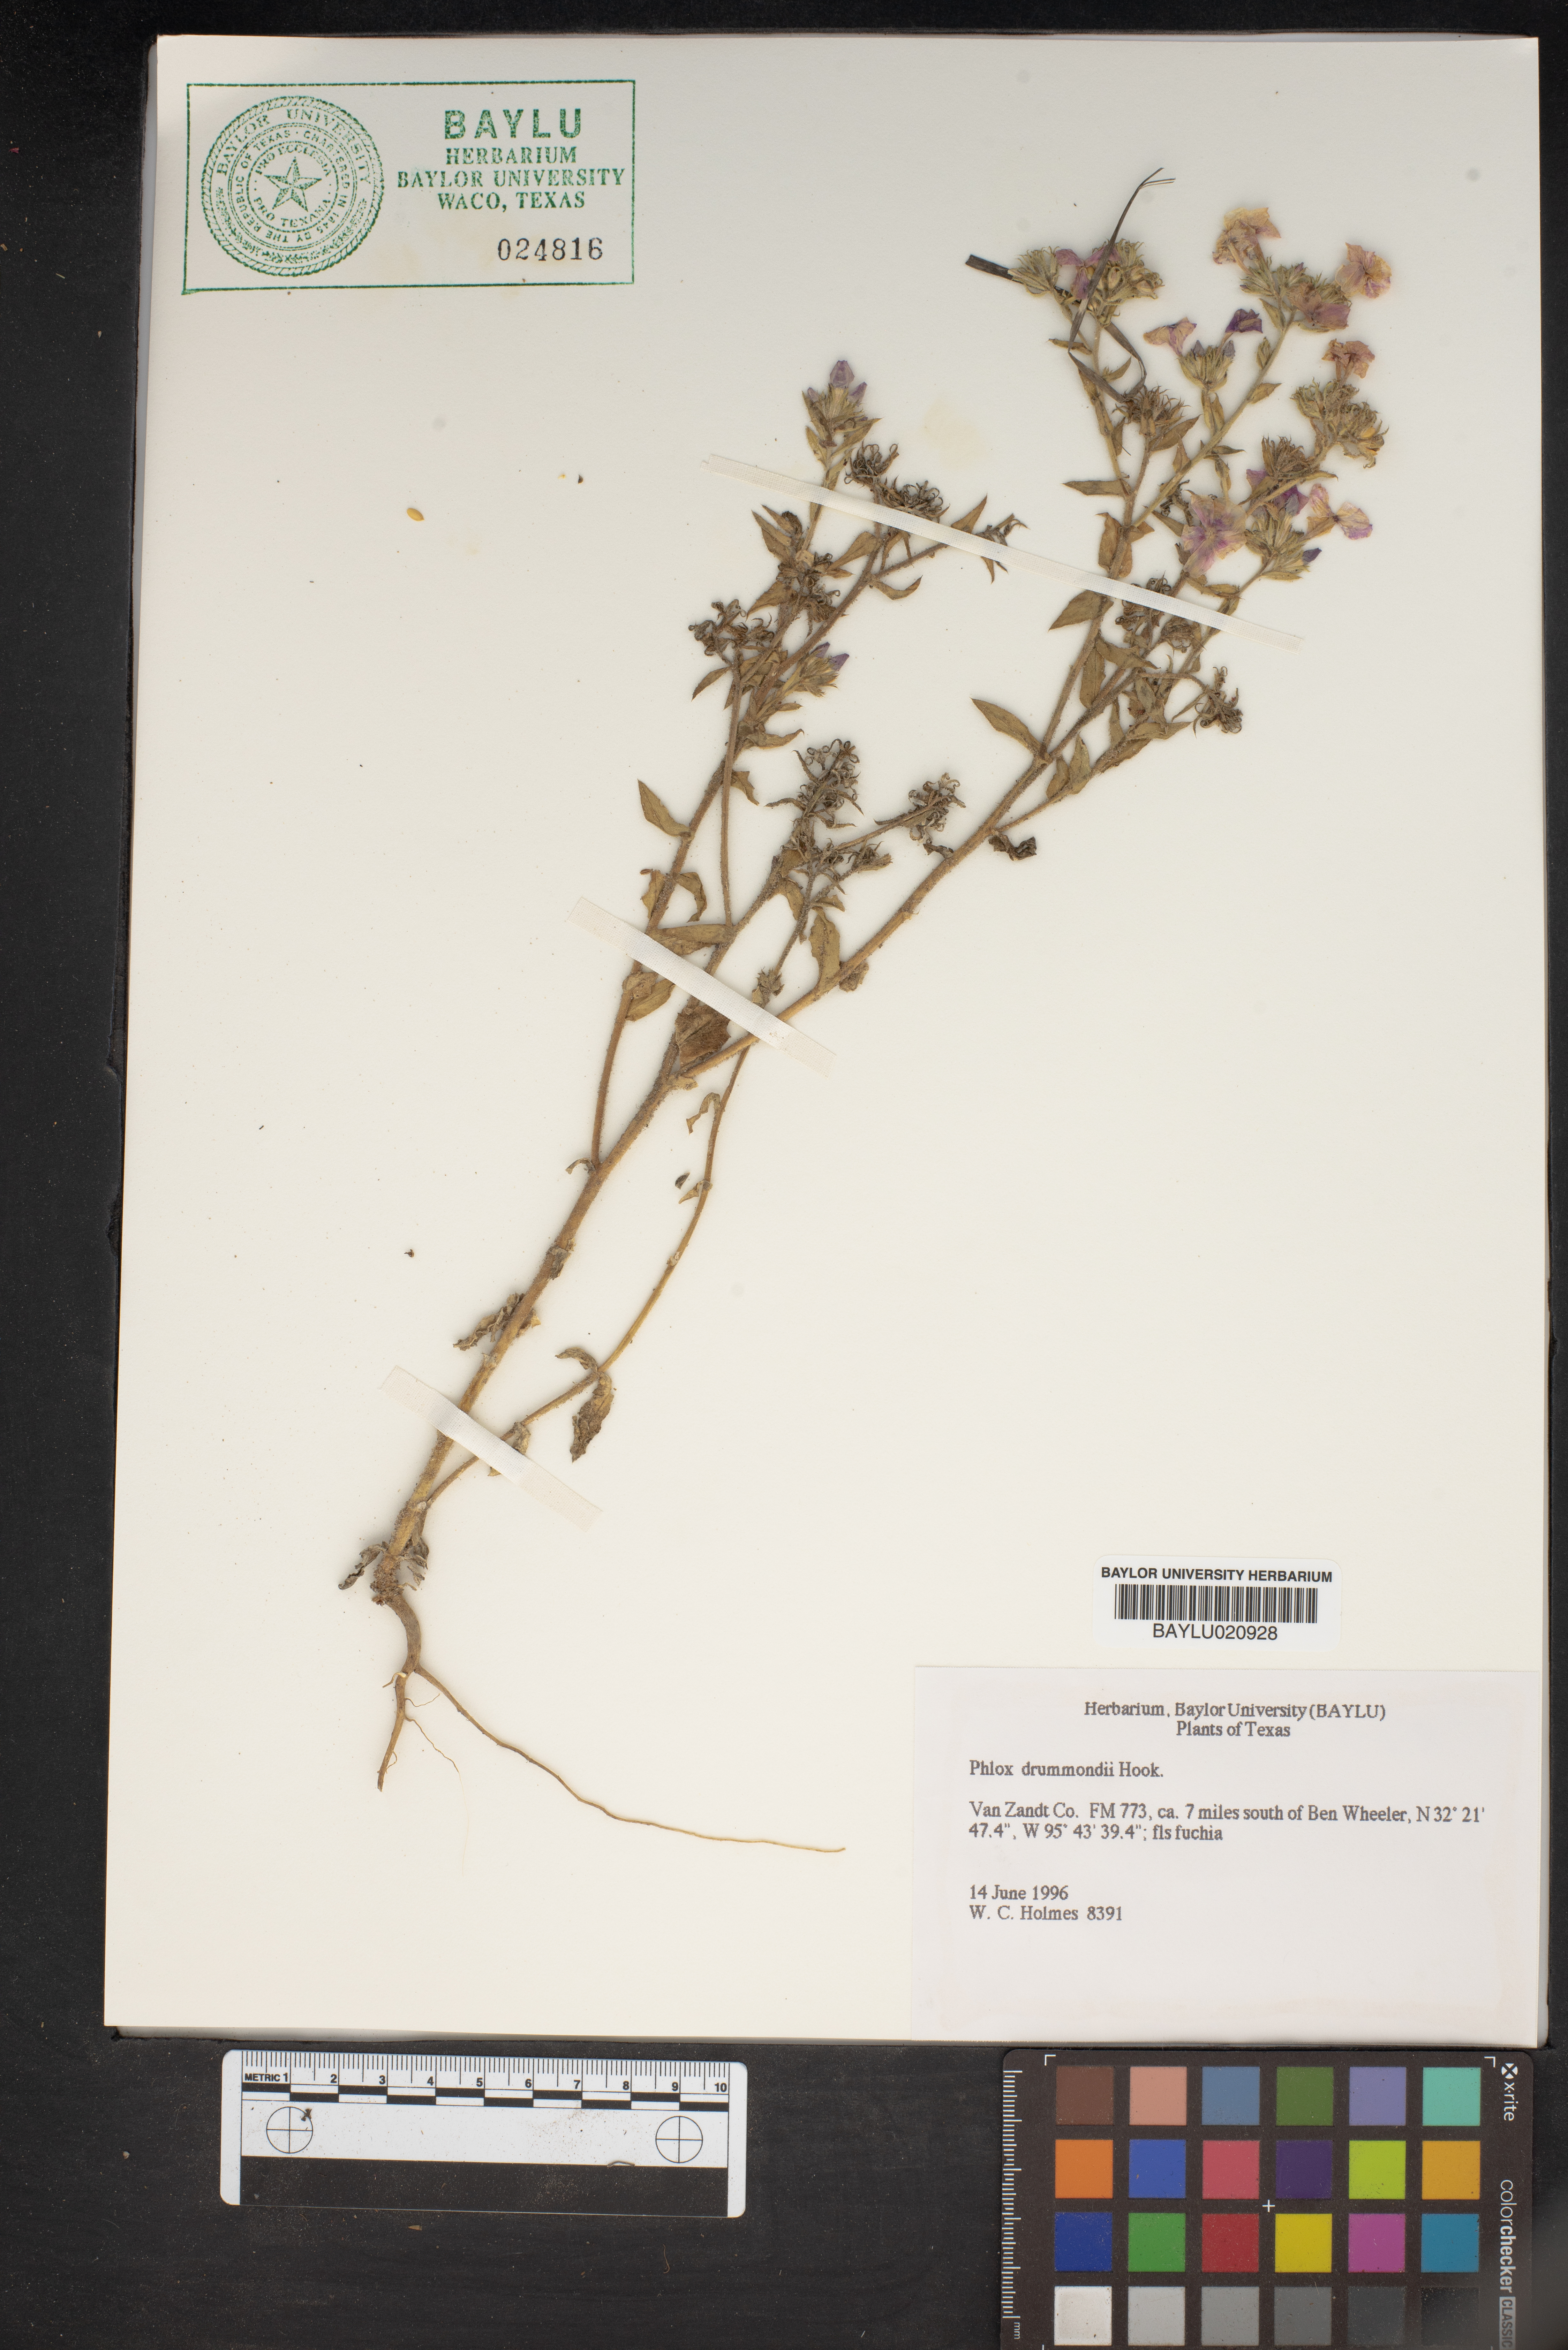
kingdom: Plantae
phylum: Tracheophyta
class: Magnoliopsida
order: Ericales
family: Polemoniaceae
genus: Phlox
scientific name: Phlox drummondii
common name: Drummond's phlox
